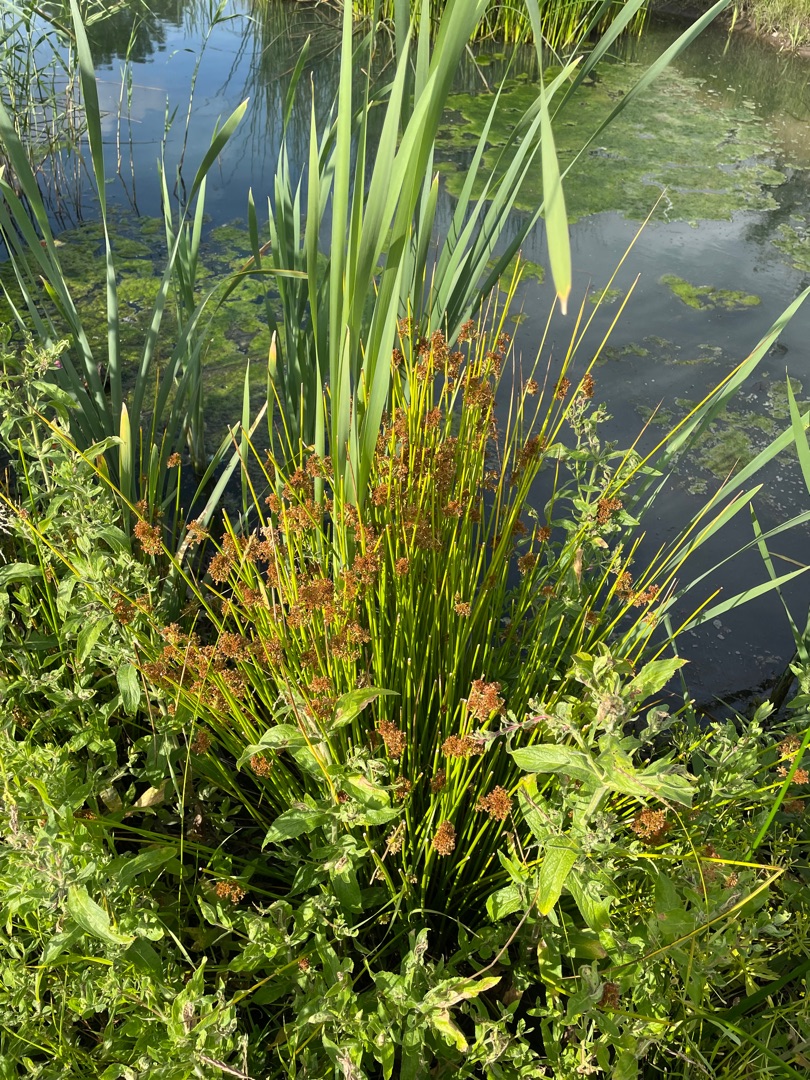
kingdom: Plantae
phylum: Tracheophyta
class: Liliopsida
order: Poales
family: Juncaceae
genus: Juncus
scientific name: Juncus effusus
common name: Lyse-siv
